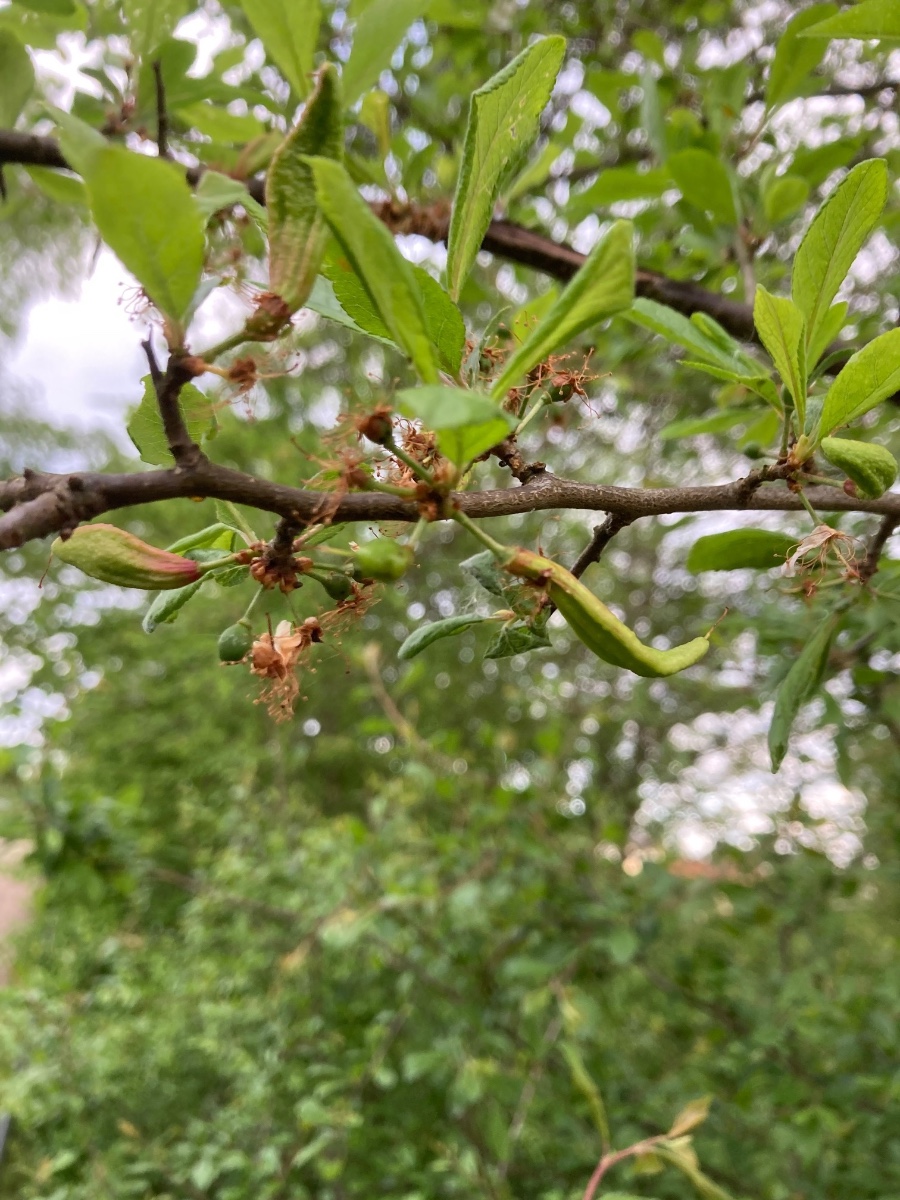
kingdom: Fungi
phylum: Ascomycota
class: Taphrinomycetes
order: Taphrinales
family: Taphrinaceae
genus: Taphrina
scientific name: Taphrina pruni
